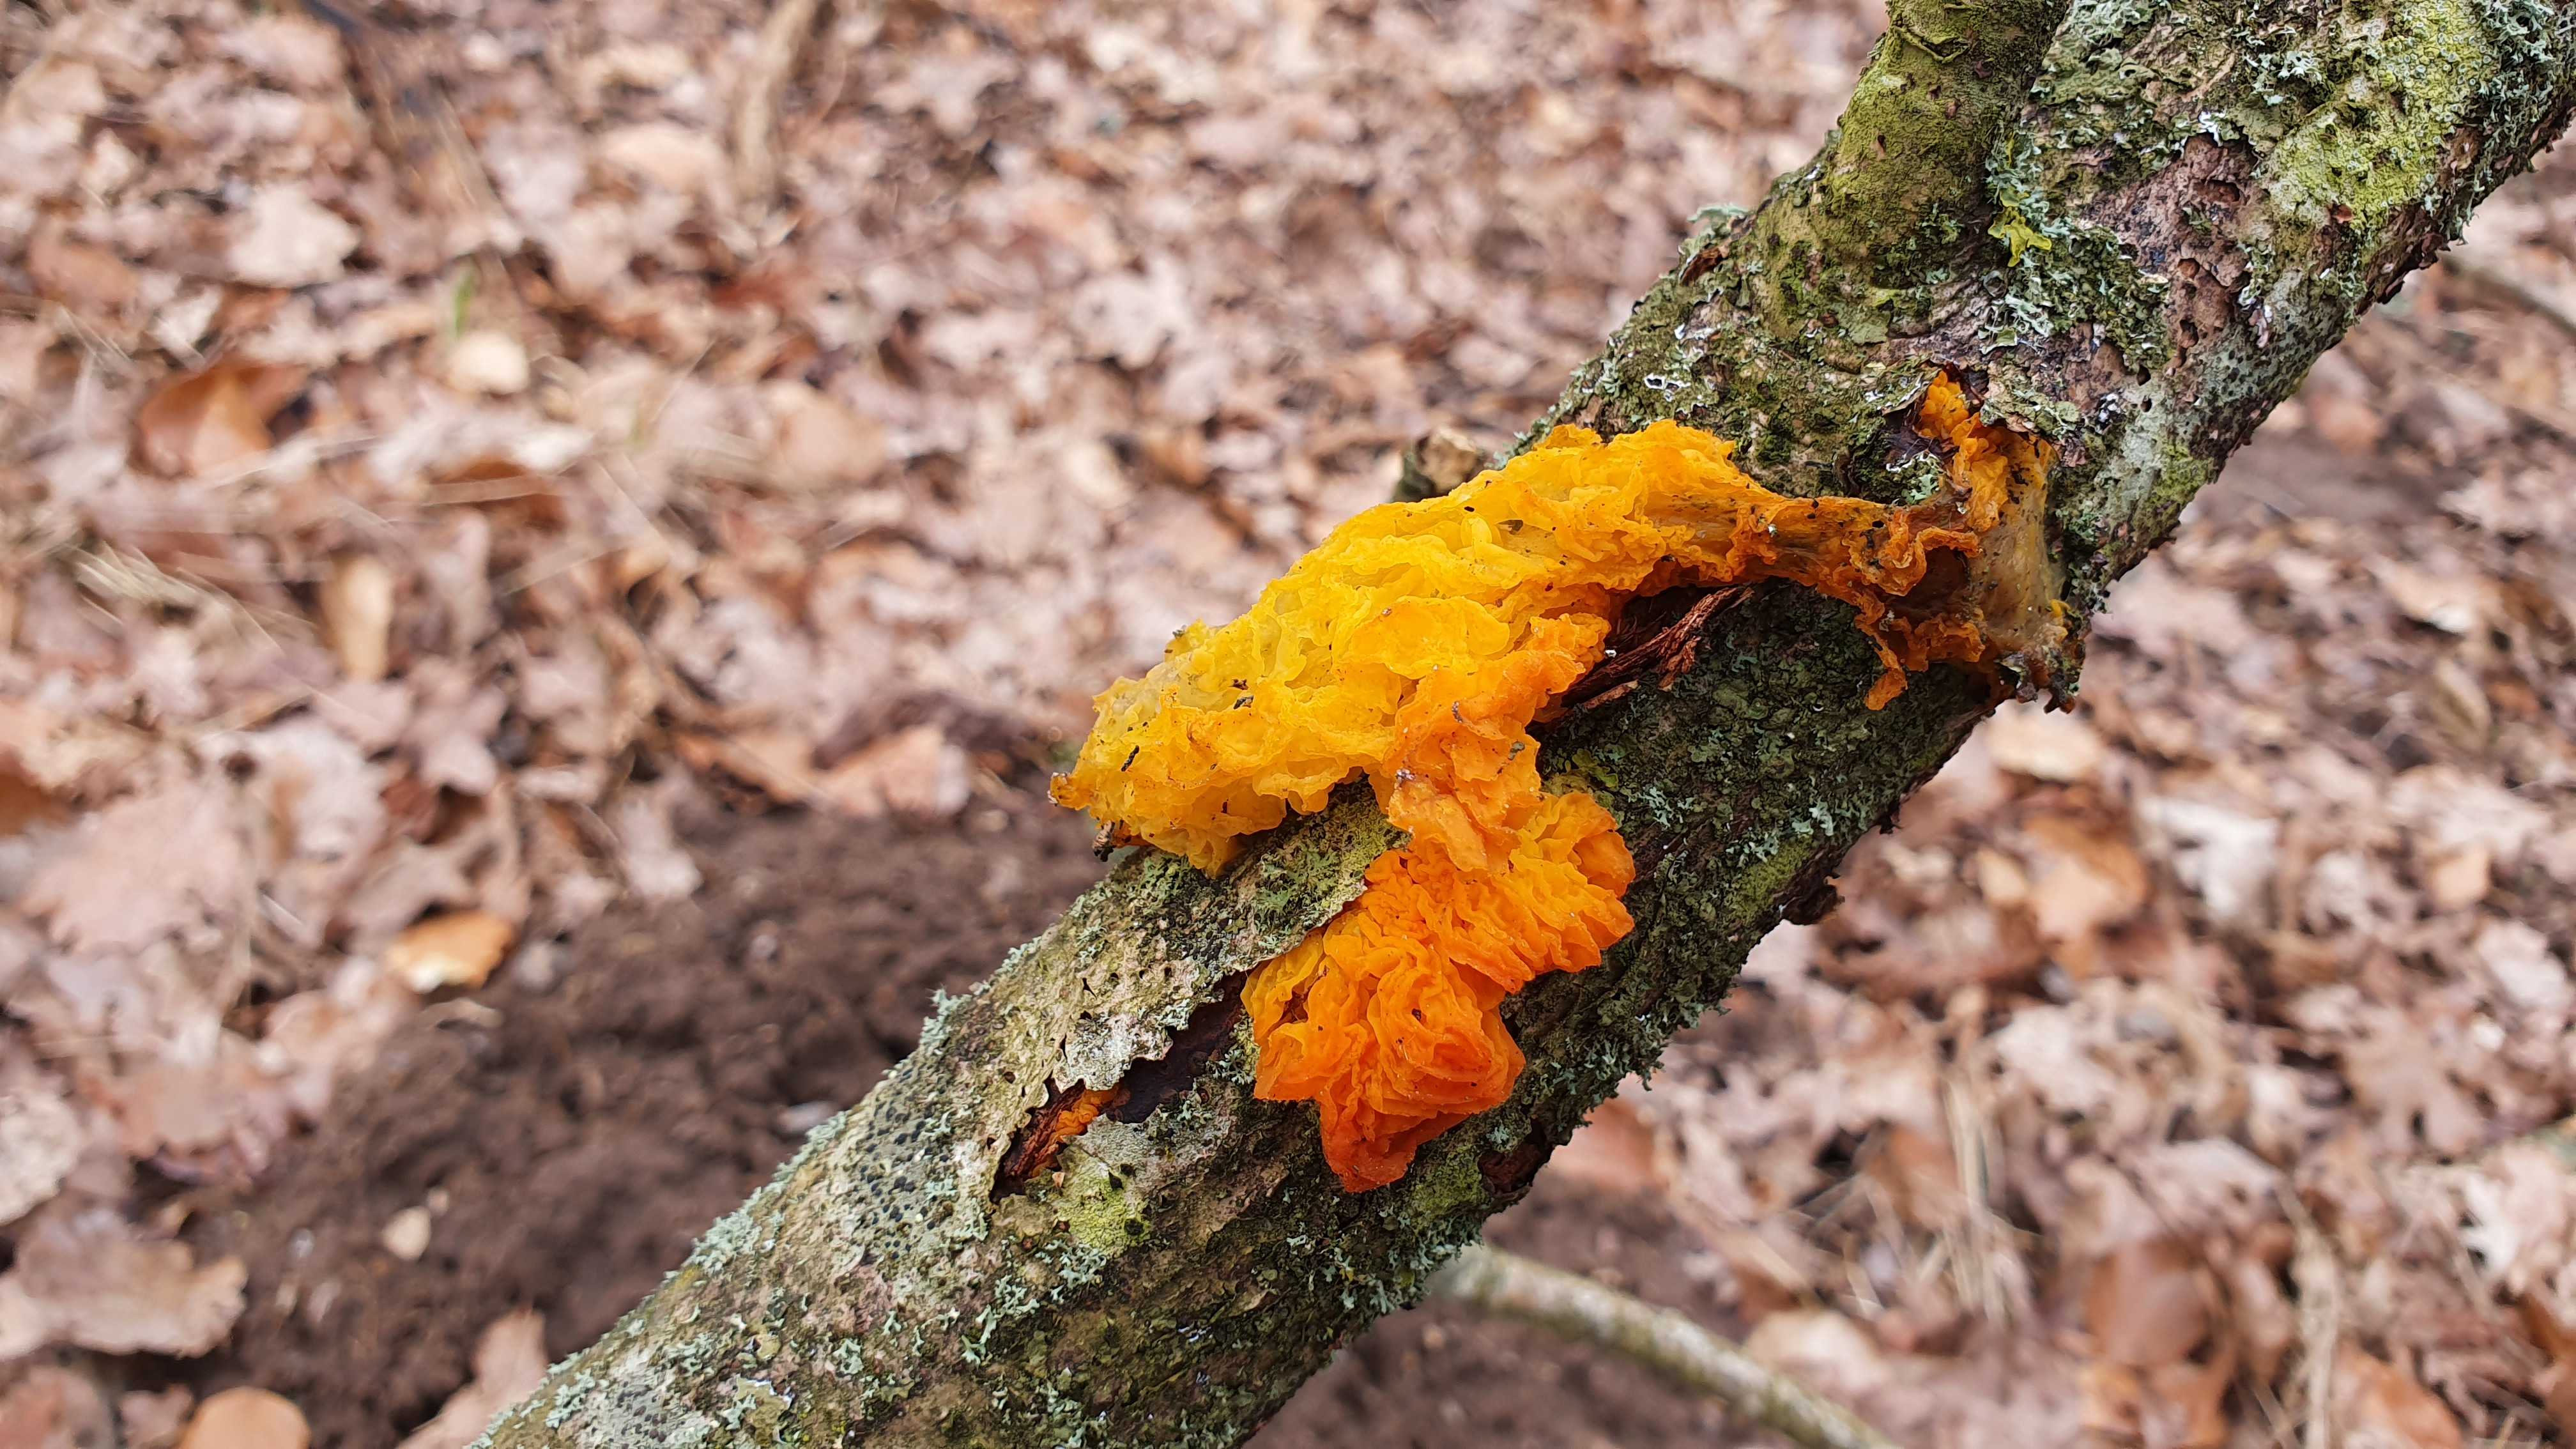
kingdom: Fungi
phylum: Basidiomycota
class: Tremellomycetes
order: Tremellales
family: Tremellaceae
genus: Tremella
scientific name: Tremella mesenterica
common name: gul bævresvamp
